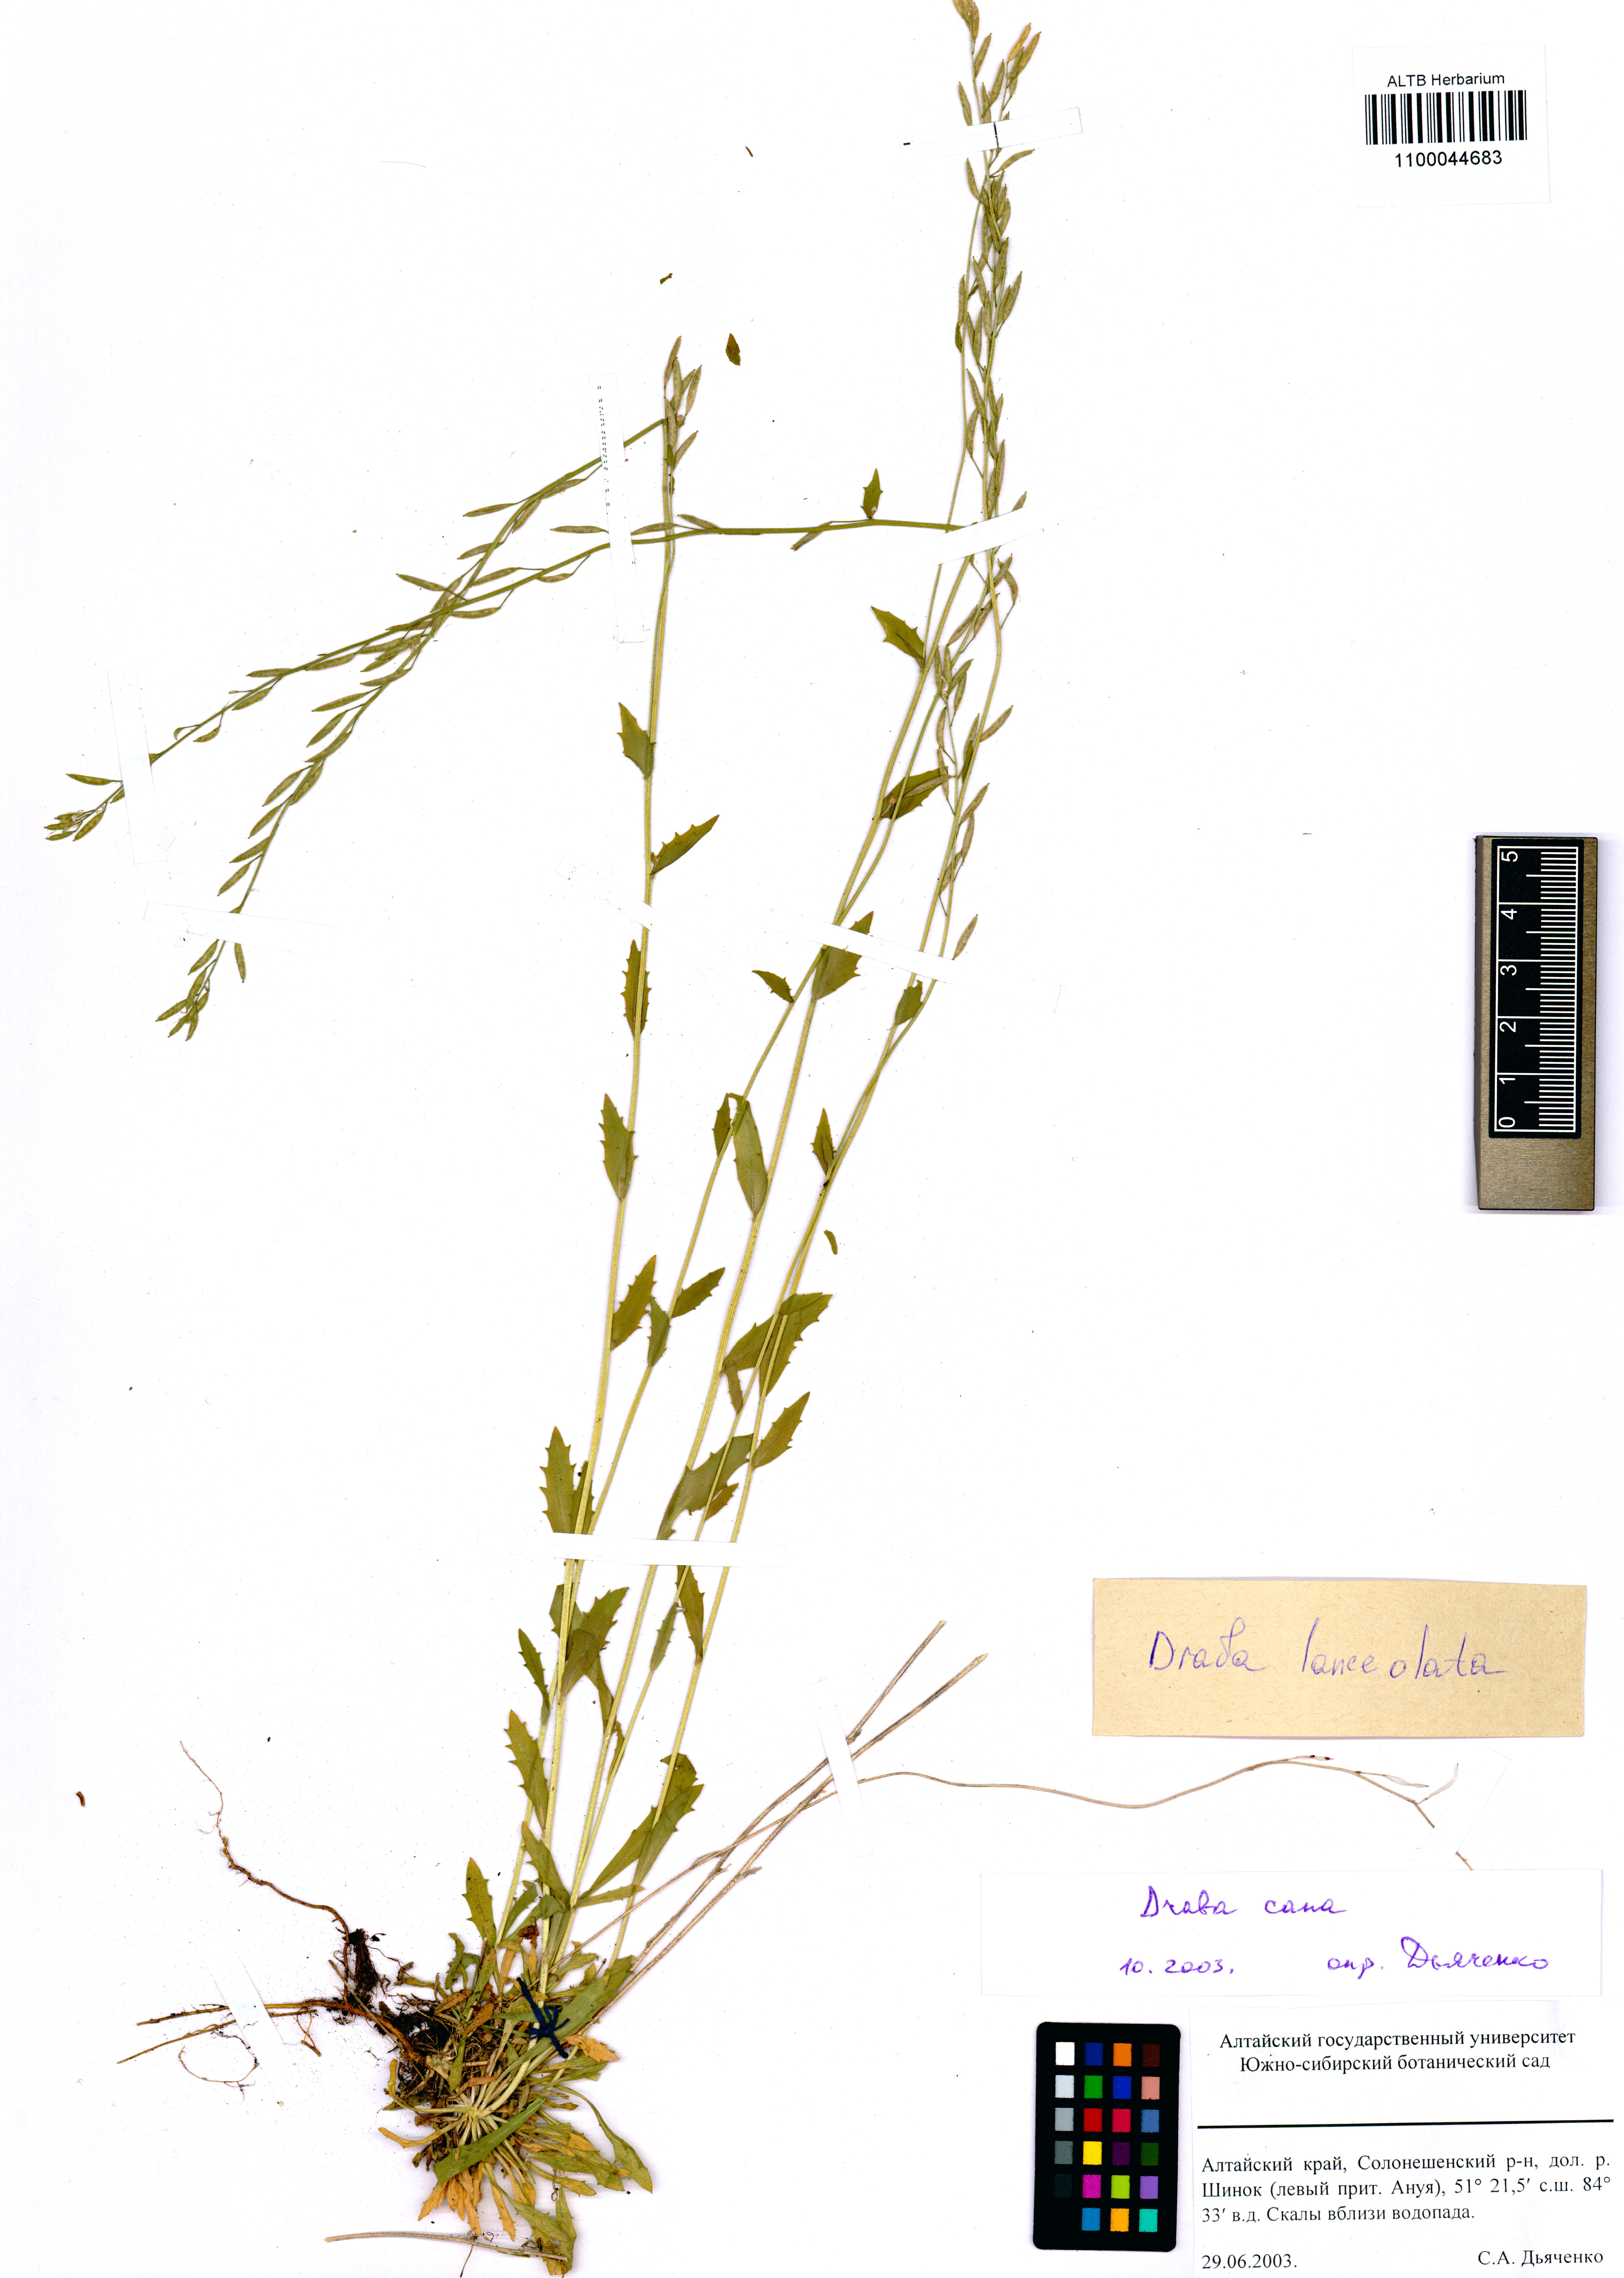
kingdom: Plantae
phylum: Tracheophyta
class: Magnoliopsida
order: Brassicales
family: Brassicaceae
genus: Draba
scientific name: Draba lanceolata
